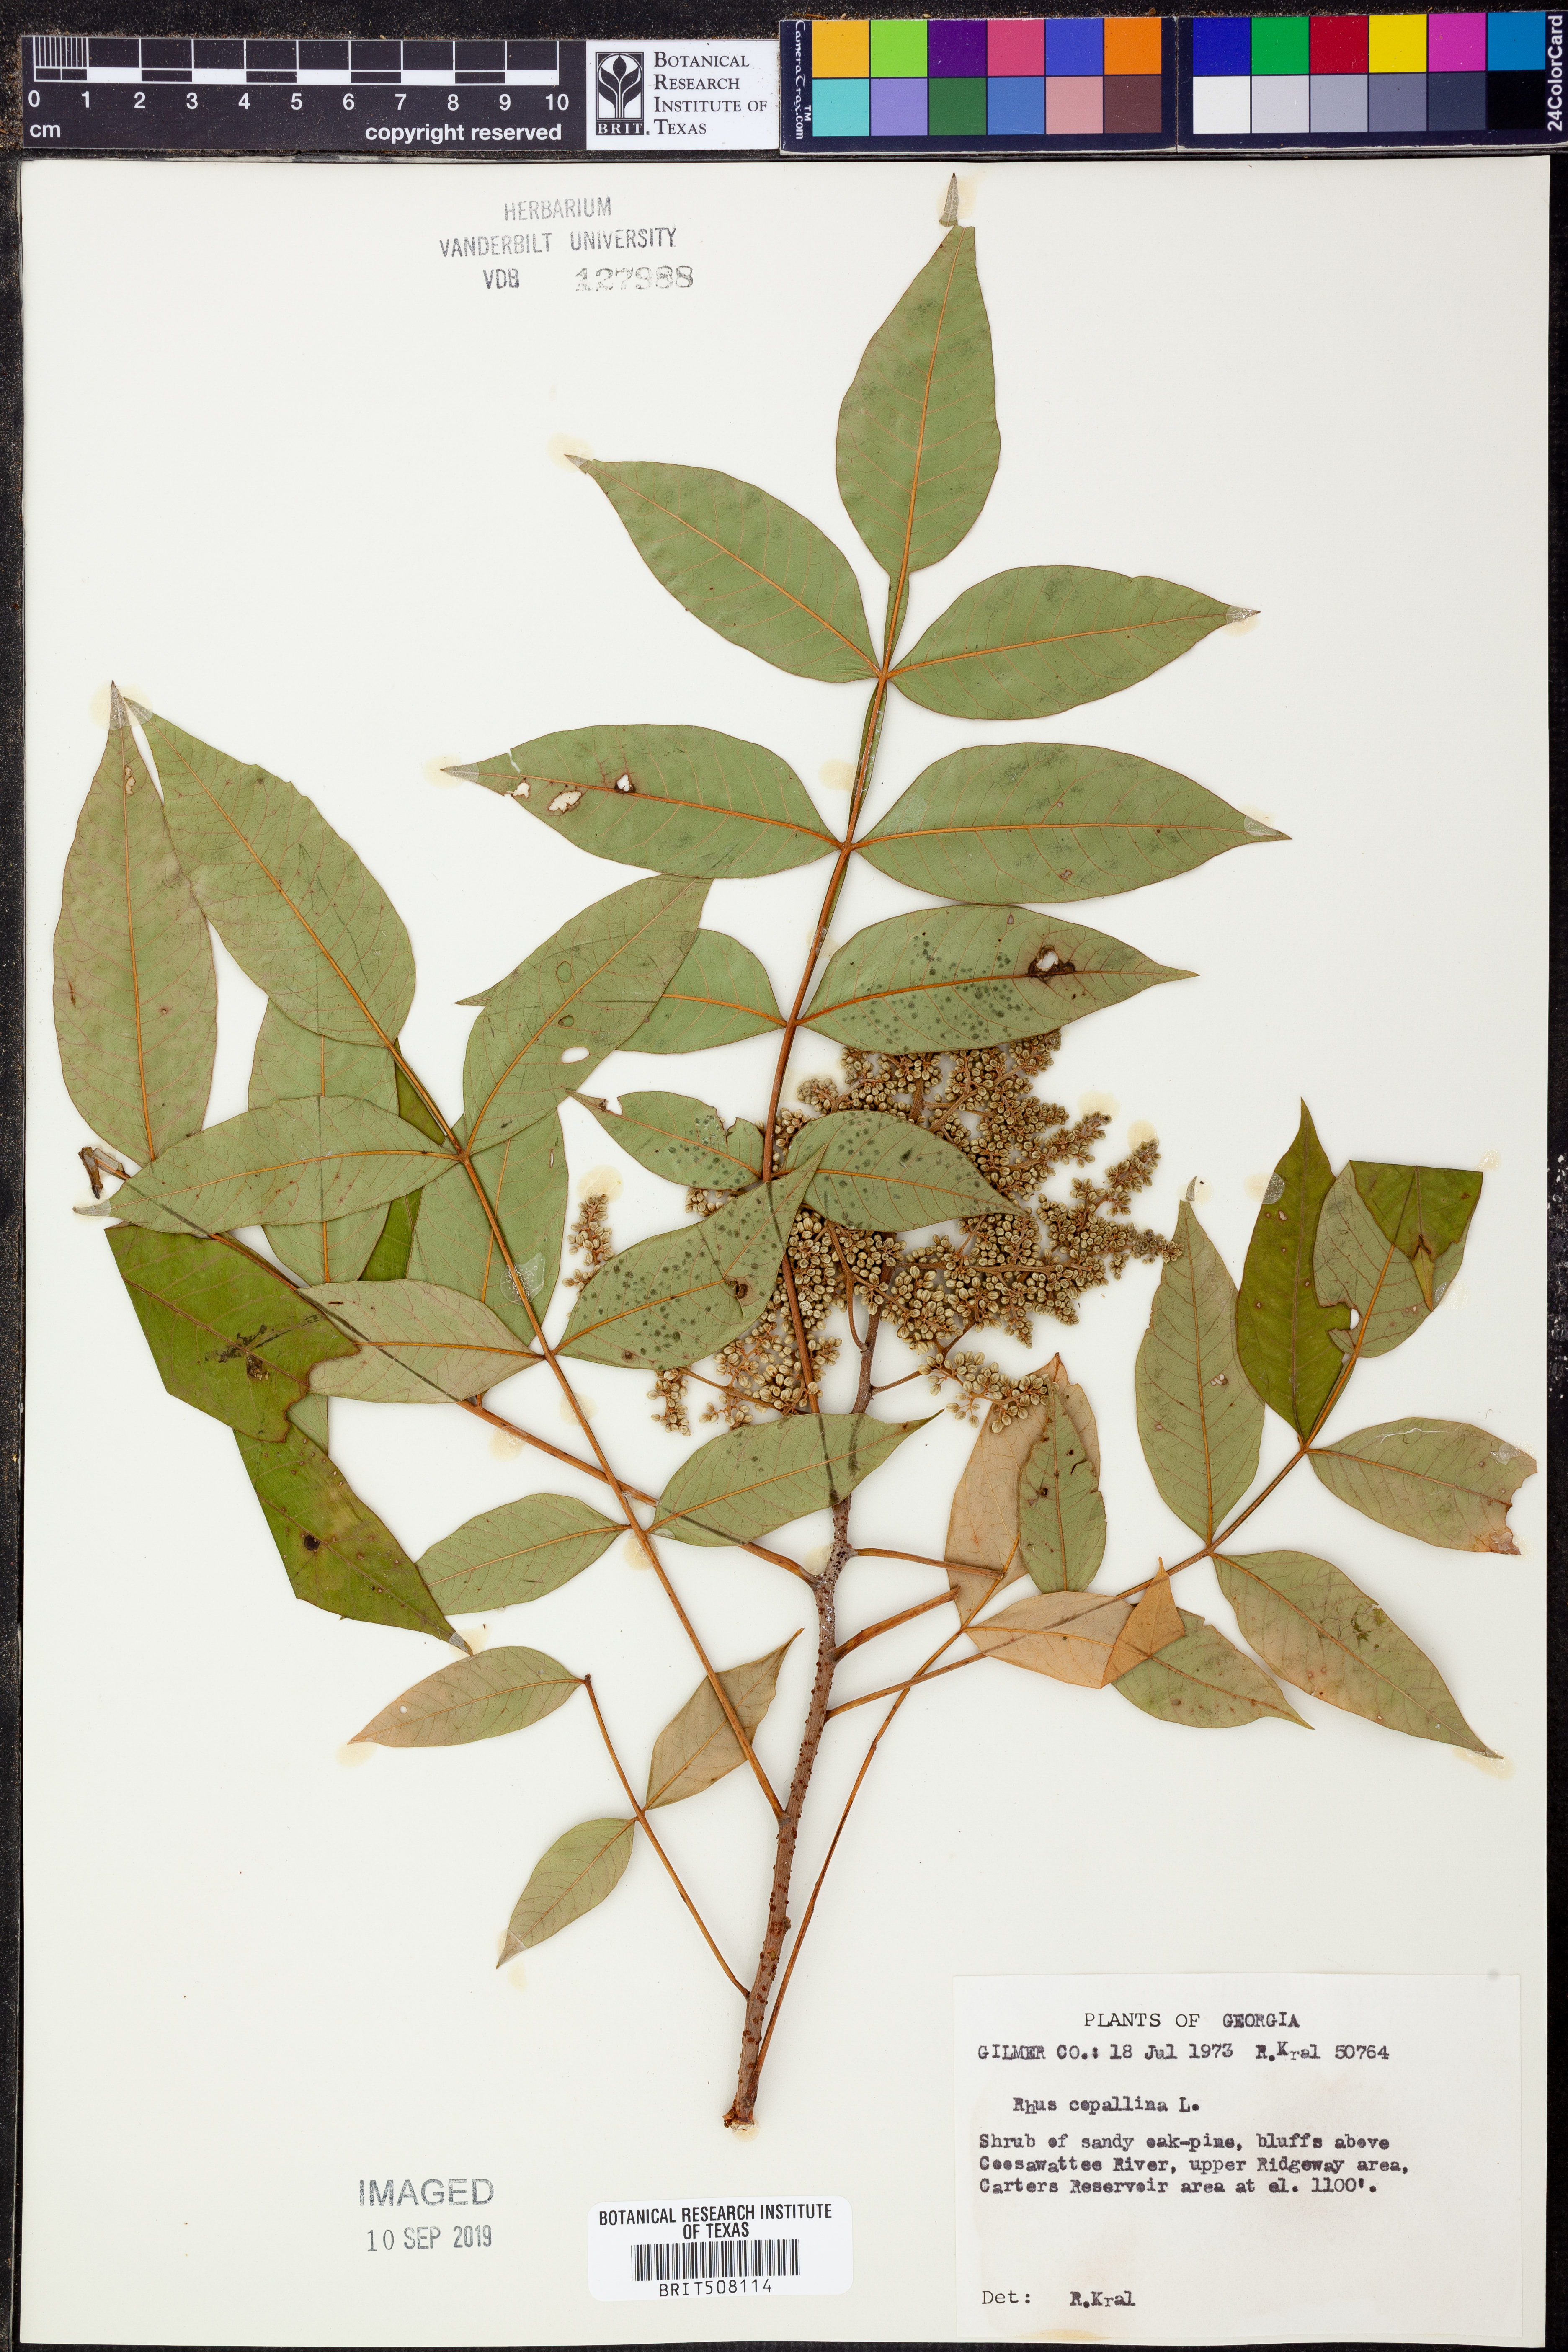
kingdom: Plantae
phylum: Tracheophyta
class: Magnoliopsida
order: Sapindales
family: Anacardiaceae
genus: Rhus
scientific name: Rhus copallina
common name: Shining sumac
